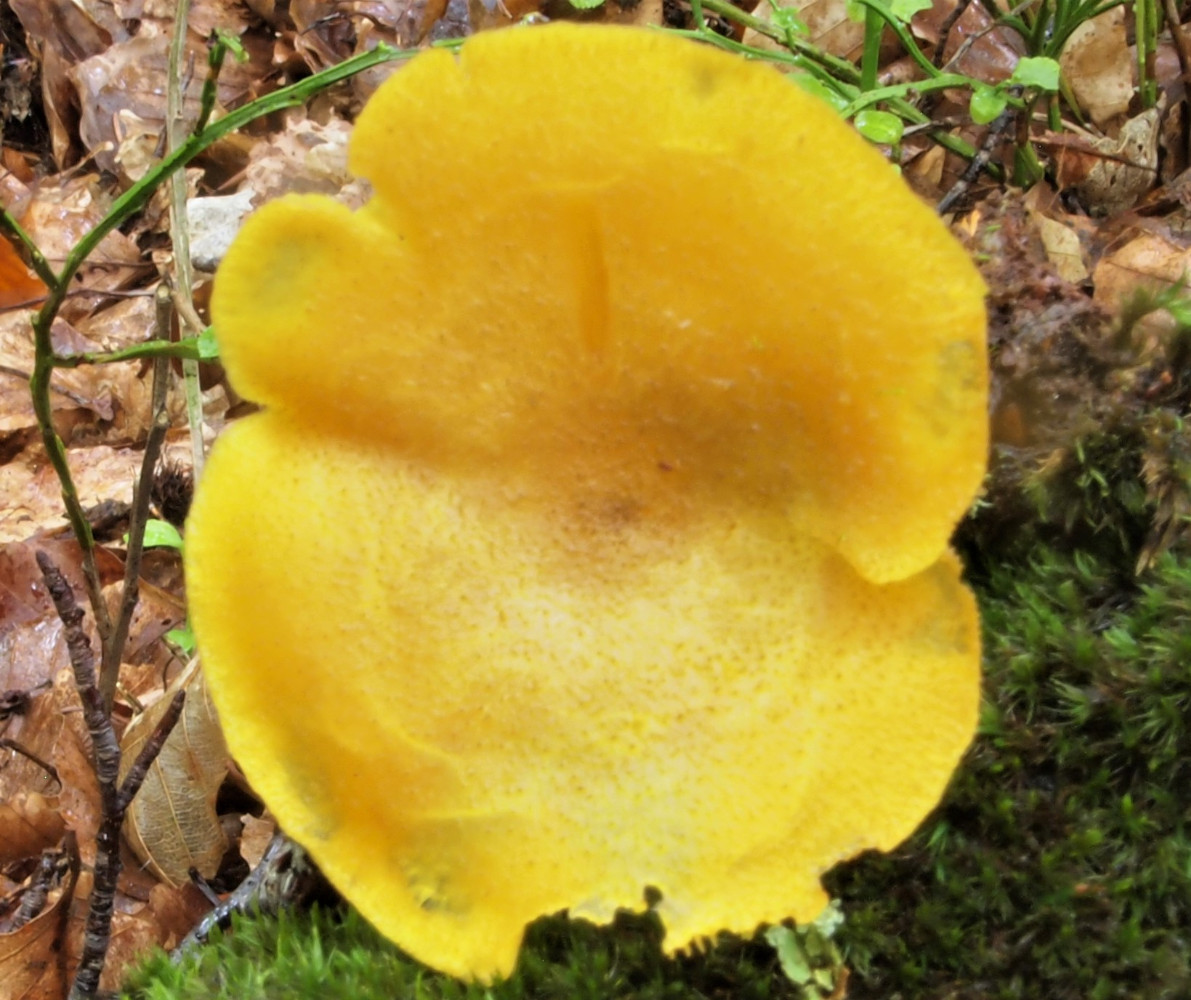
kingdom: Fungi
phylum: Basidiomycota
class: Agaricomycetes
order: Agaricales
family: Tricholomataceae
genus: Tricholomopsis
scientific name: Tricholomopsis decora
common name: sortskællet væbnerhat
